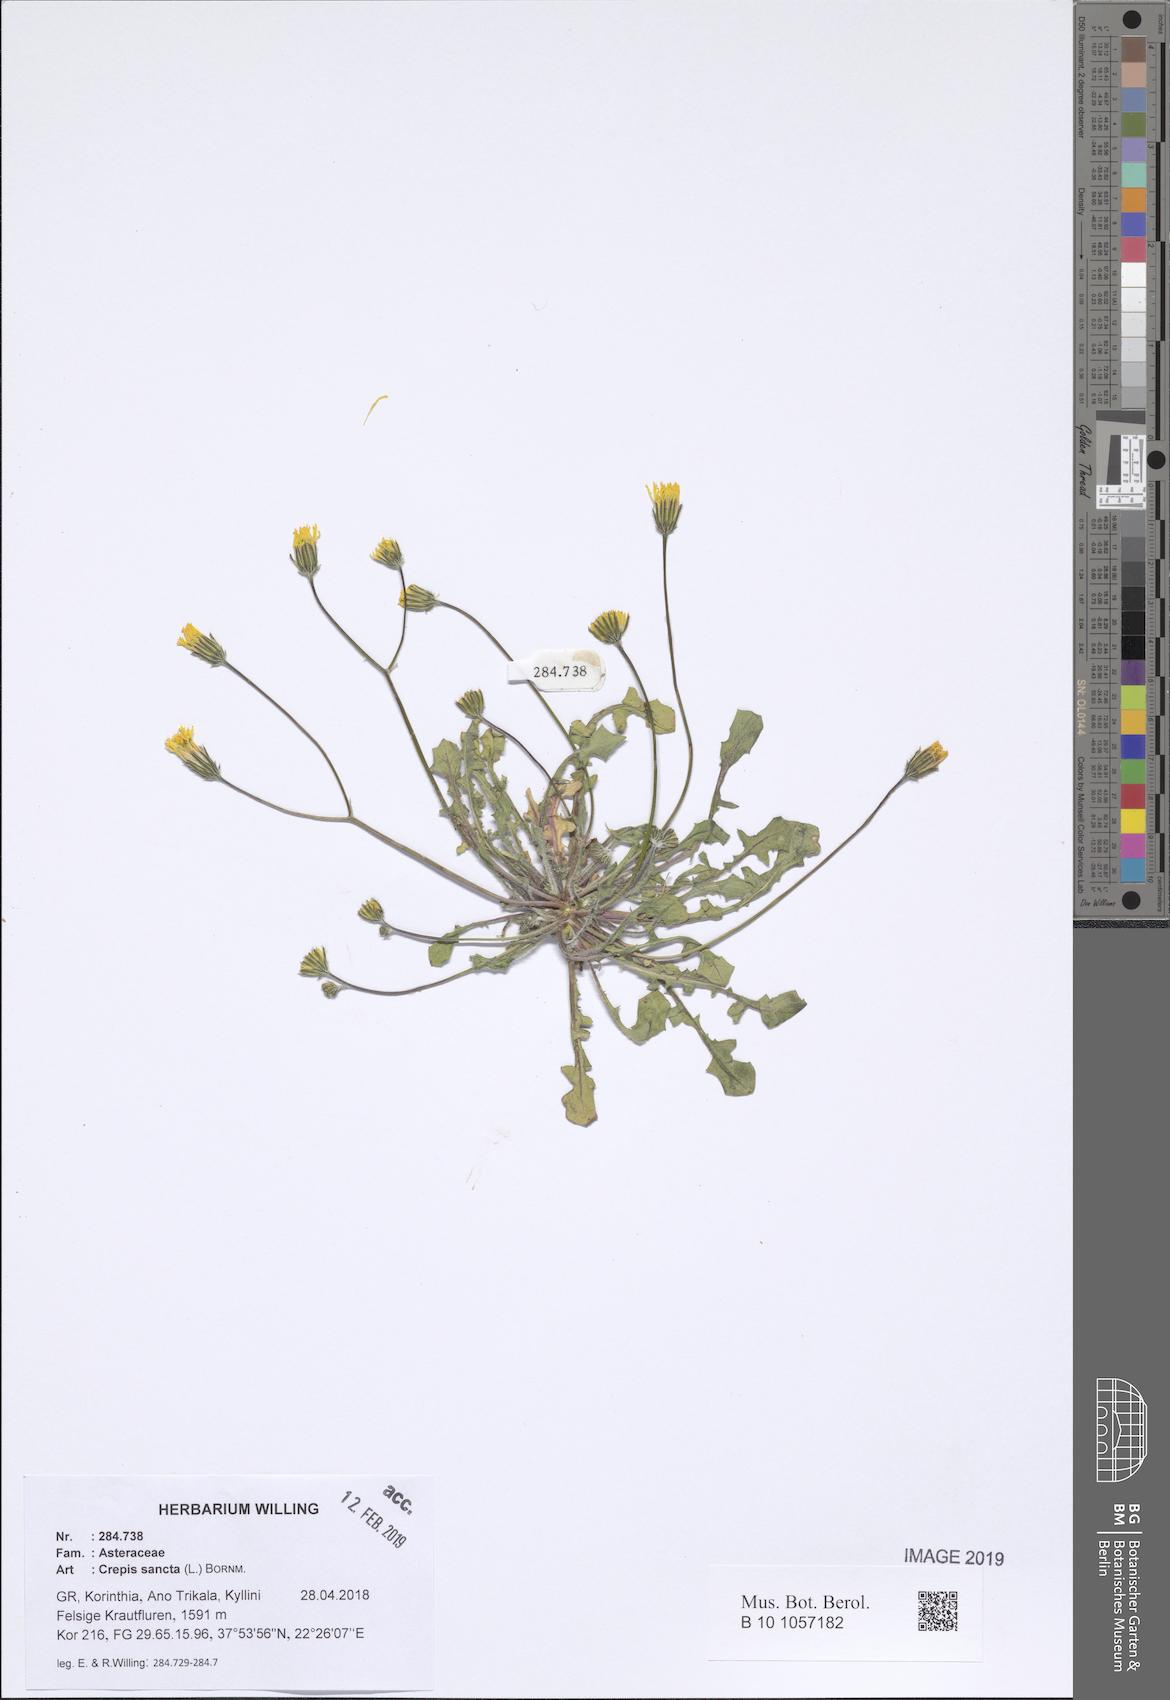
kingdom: Plantae
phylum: Tracheophyta
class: Liliopsida
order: Asparagales
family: Asphodelaceae
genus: Asphodelus
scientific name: Asphodelus fistulosus
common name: Onionweed
